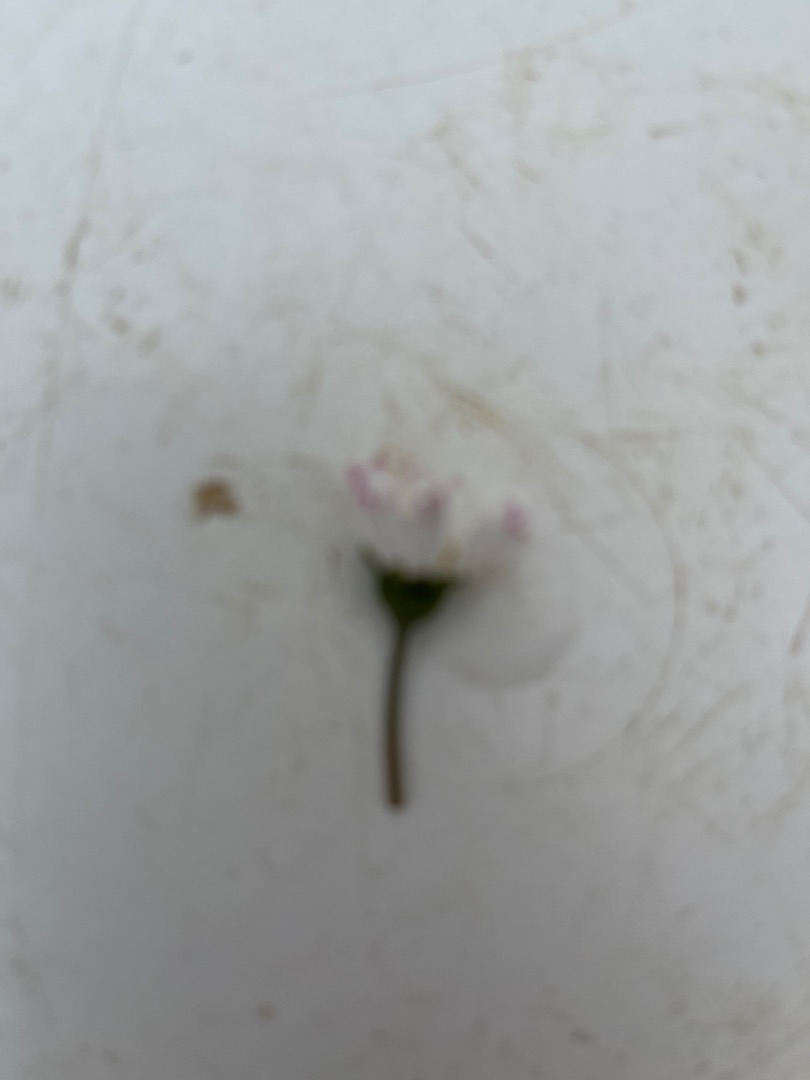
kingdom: Plantae
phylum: Tracheophyta
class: Magnoliopsida
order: Asterales
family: Asteraceae
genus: Bellis
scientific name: Bellis perennis
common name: Tusindfryd
